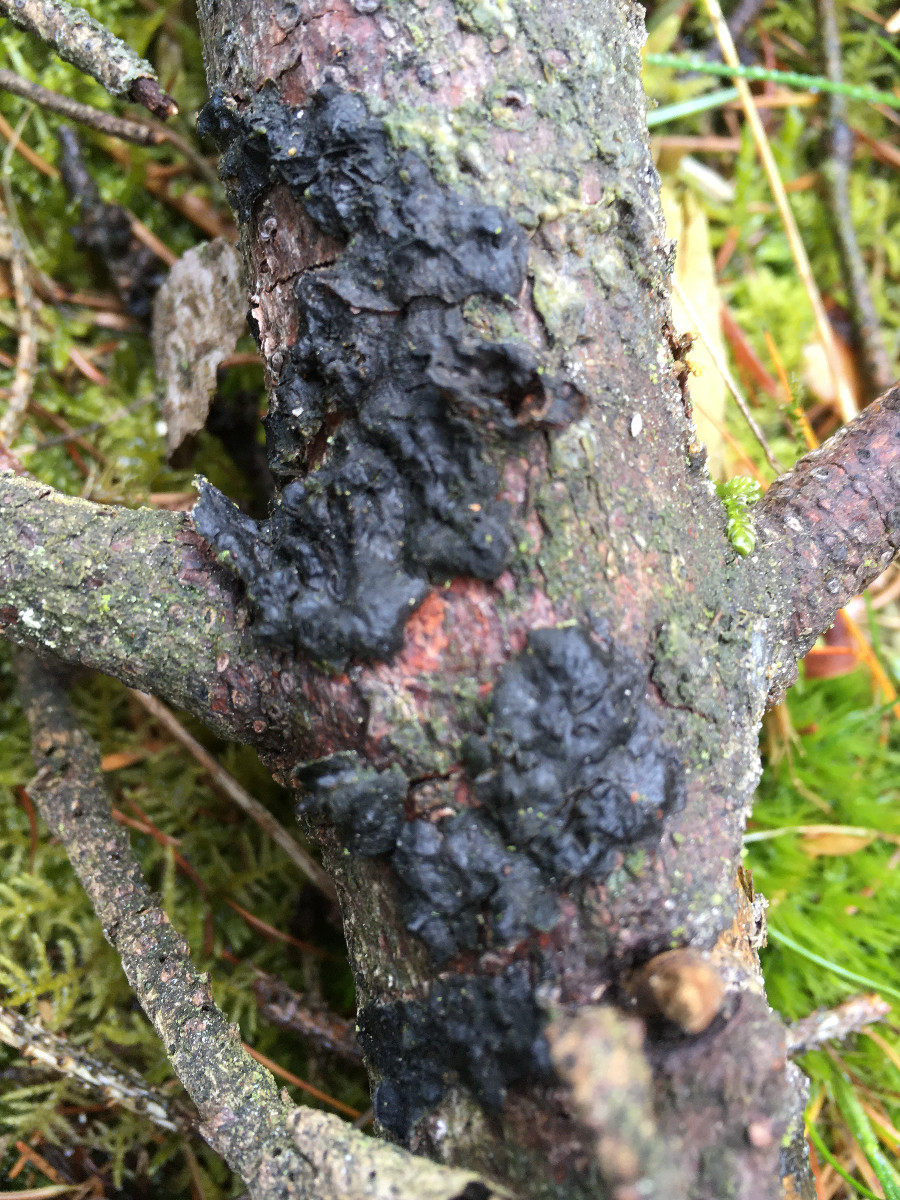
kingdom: Fungi
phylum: Basidiomycota
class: Agaricomycetes
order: Auriculariales
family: Auriculariaceae
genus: Exidia
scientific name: Exidia pithya
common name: gran-bævretop
